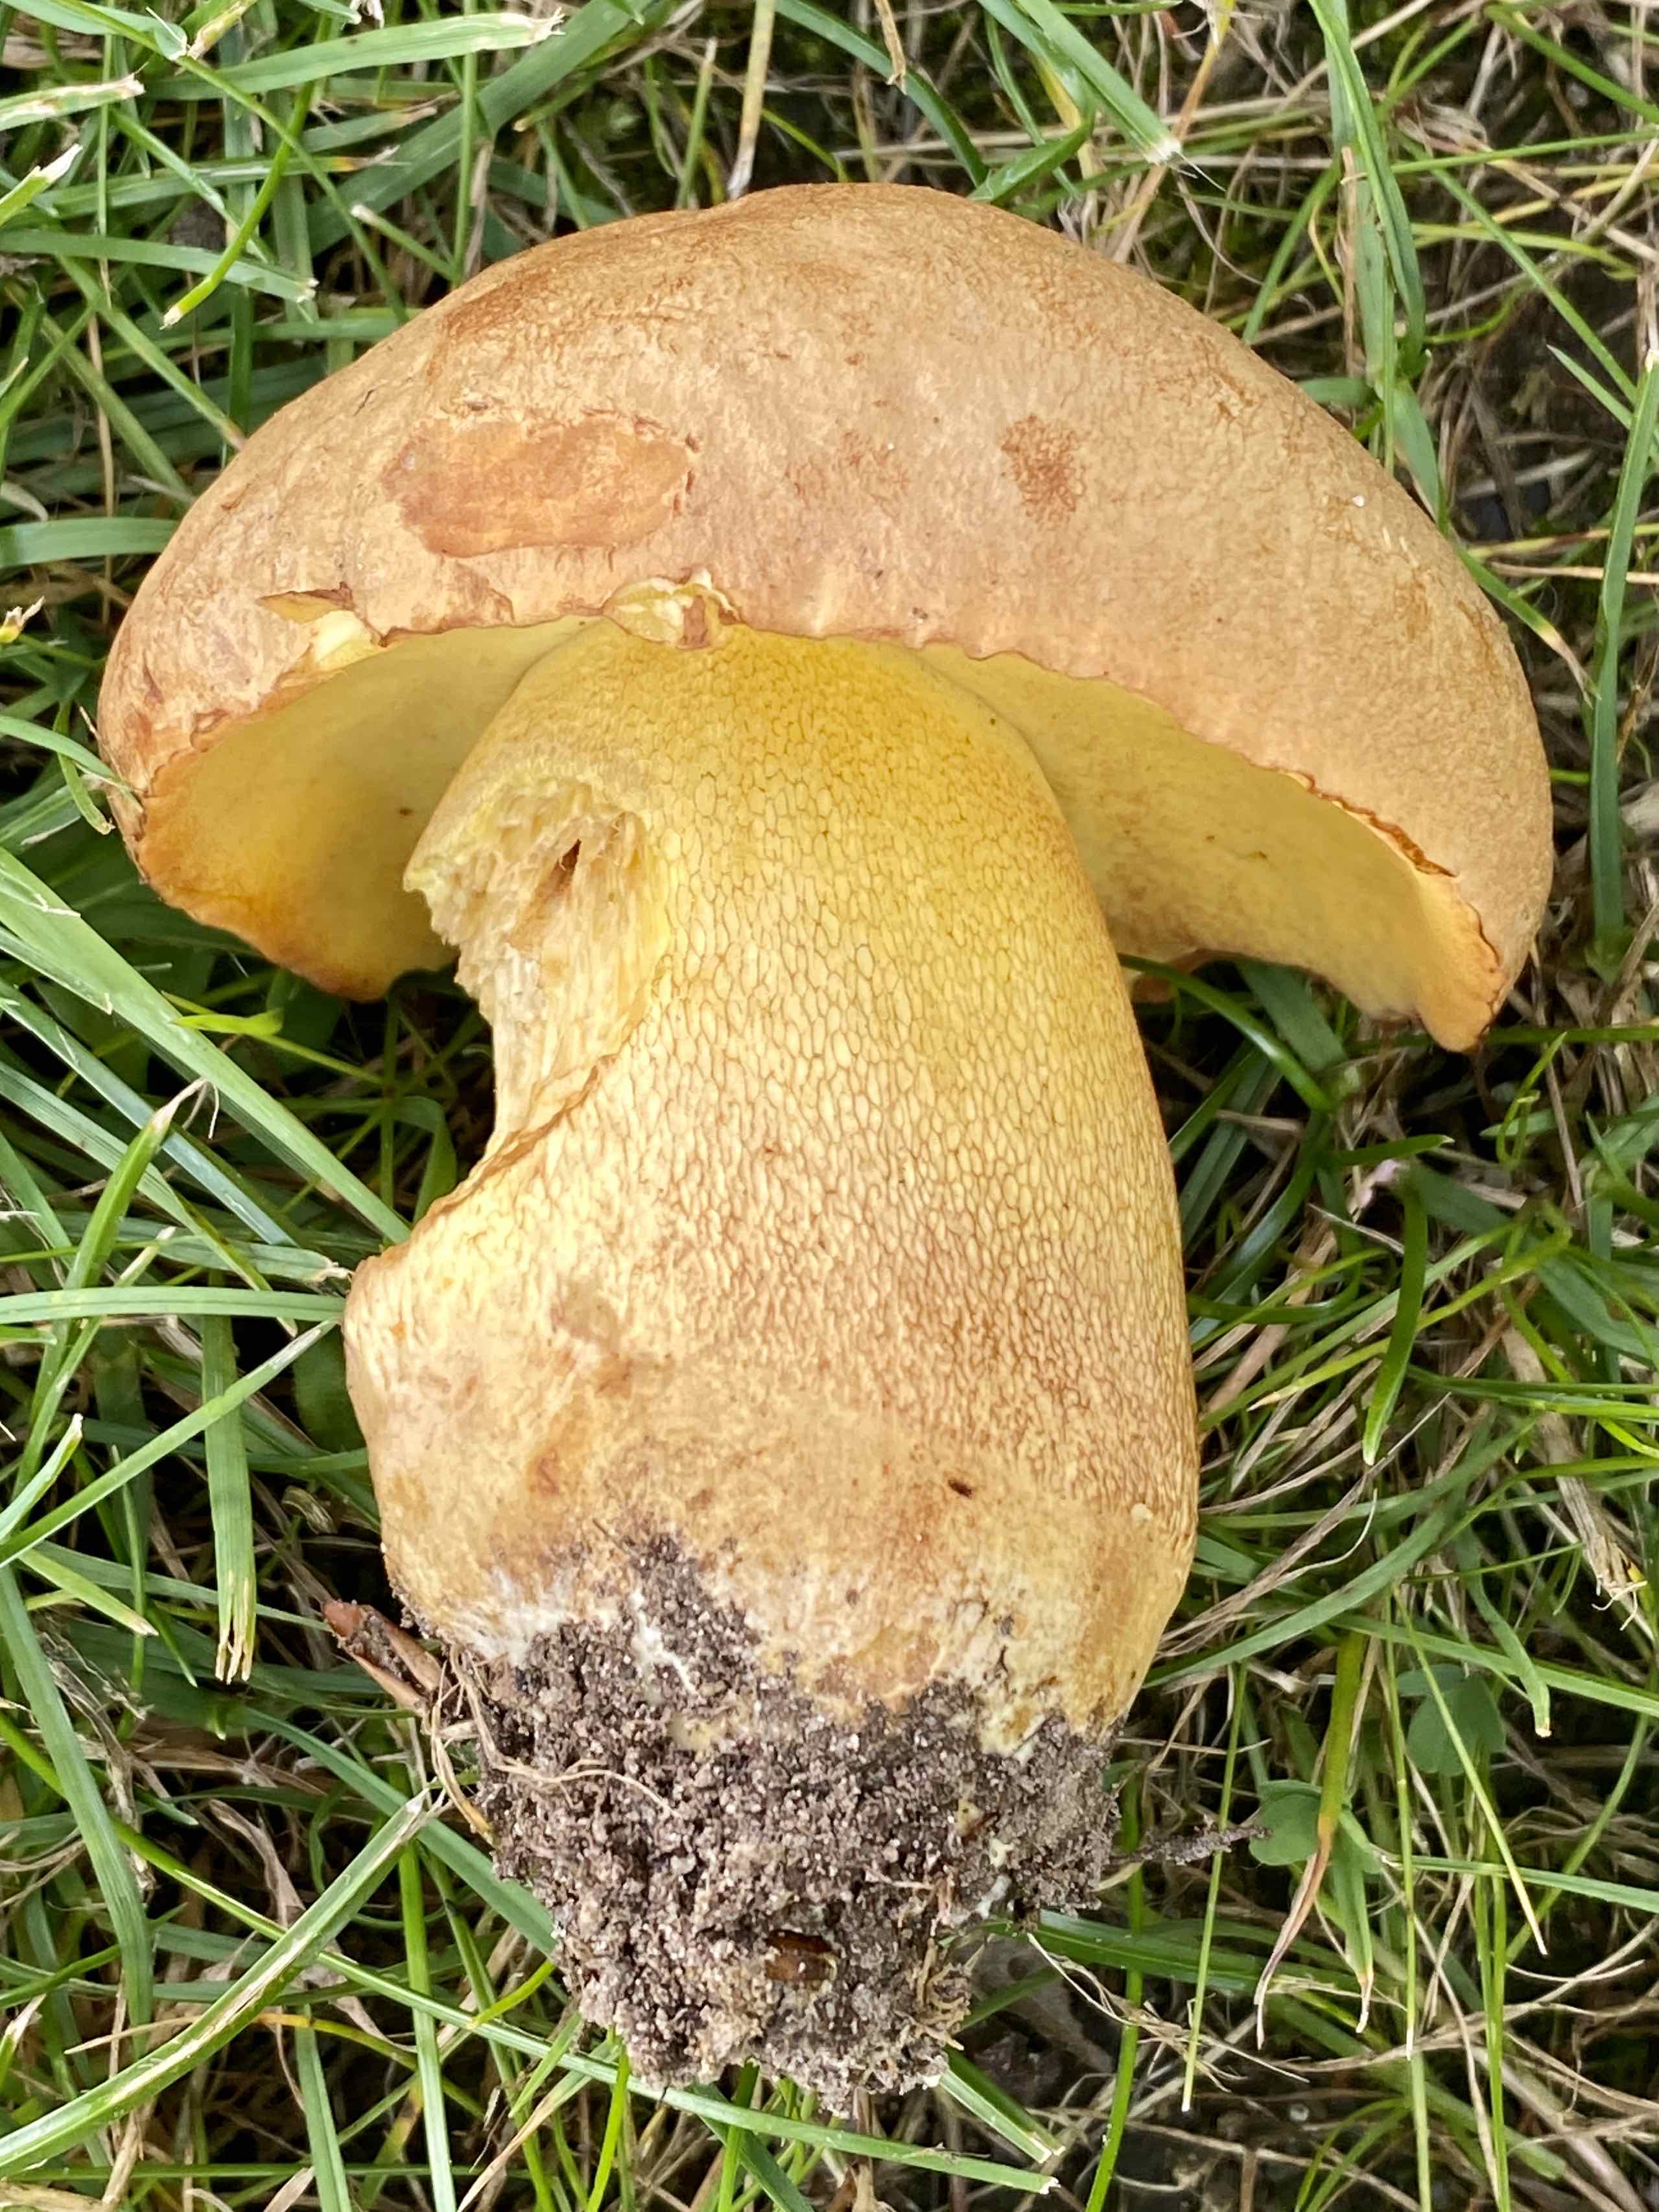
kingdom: Fungi
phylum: Basidiomycota
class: Agaricomycetes
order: Boletales
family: Boletaceae
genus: Butyriboletus
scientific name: Butyriboletus appendiculatus
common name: tenstokket rørhat
